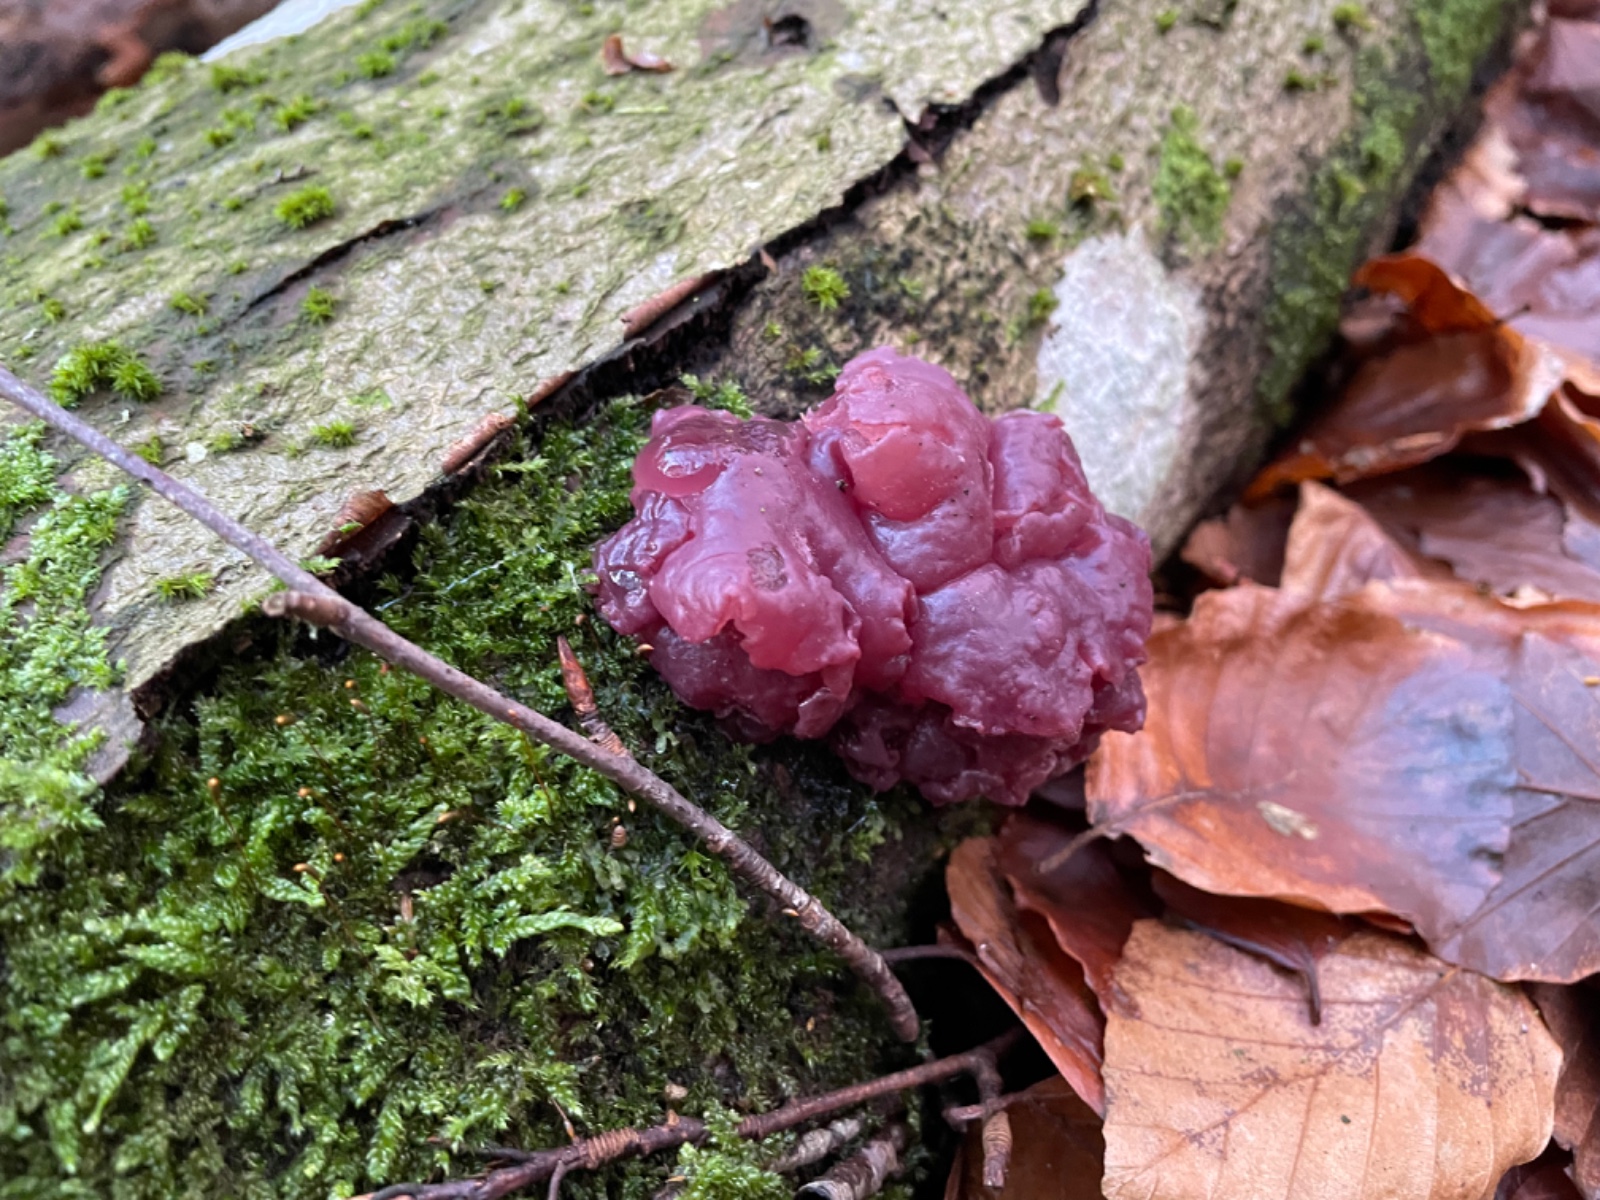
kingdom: Fungi
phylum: Ascomycota
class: Leotiomycetes
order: Helotiales
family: Gelatinodiscaceae
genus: Ascocoryne
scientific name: Ascocoryne sarcoides
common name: rødlilla sejskive
